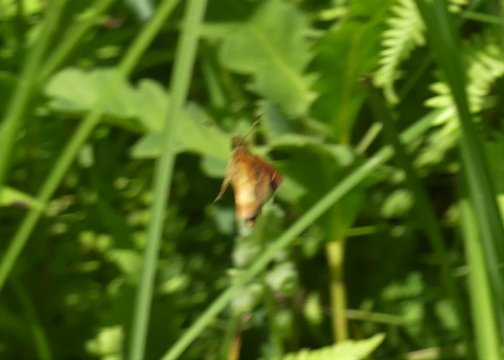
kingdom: Animalia
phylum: Arthropoda
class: Insecta
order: Lepidoptera
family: Hesperiidae
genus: Poanes
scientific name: Poanes massasoit
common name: Mulberry Wing
